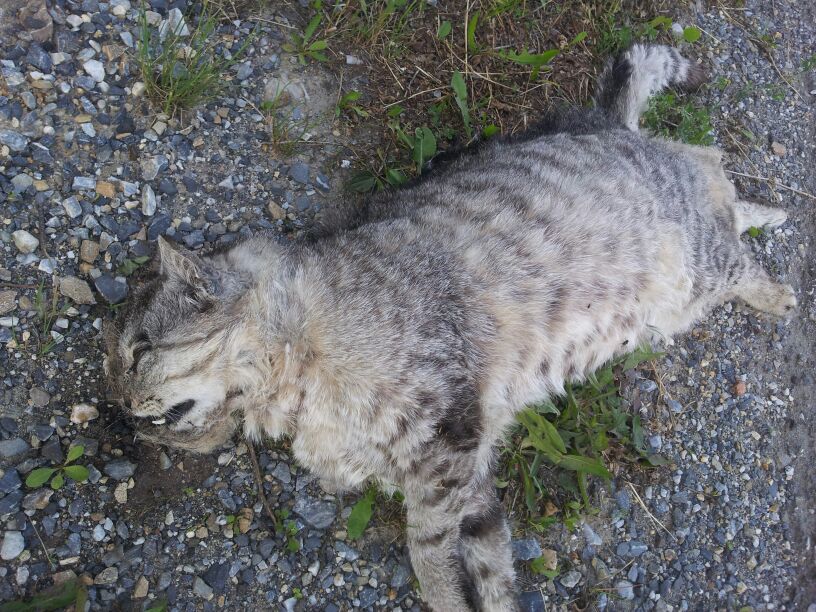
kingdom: Animalia
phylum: Chordata
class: Mammalia
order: Carnivora
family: Felidae
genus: Felis
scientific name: Felis catus
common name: Domestic cat
